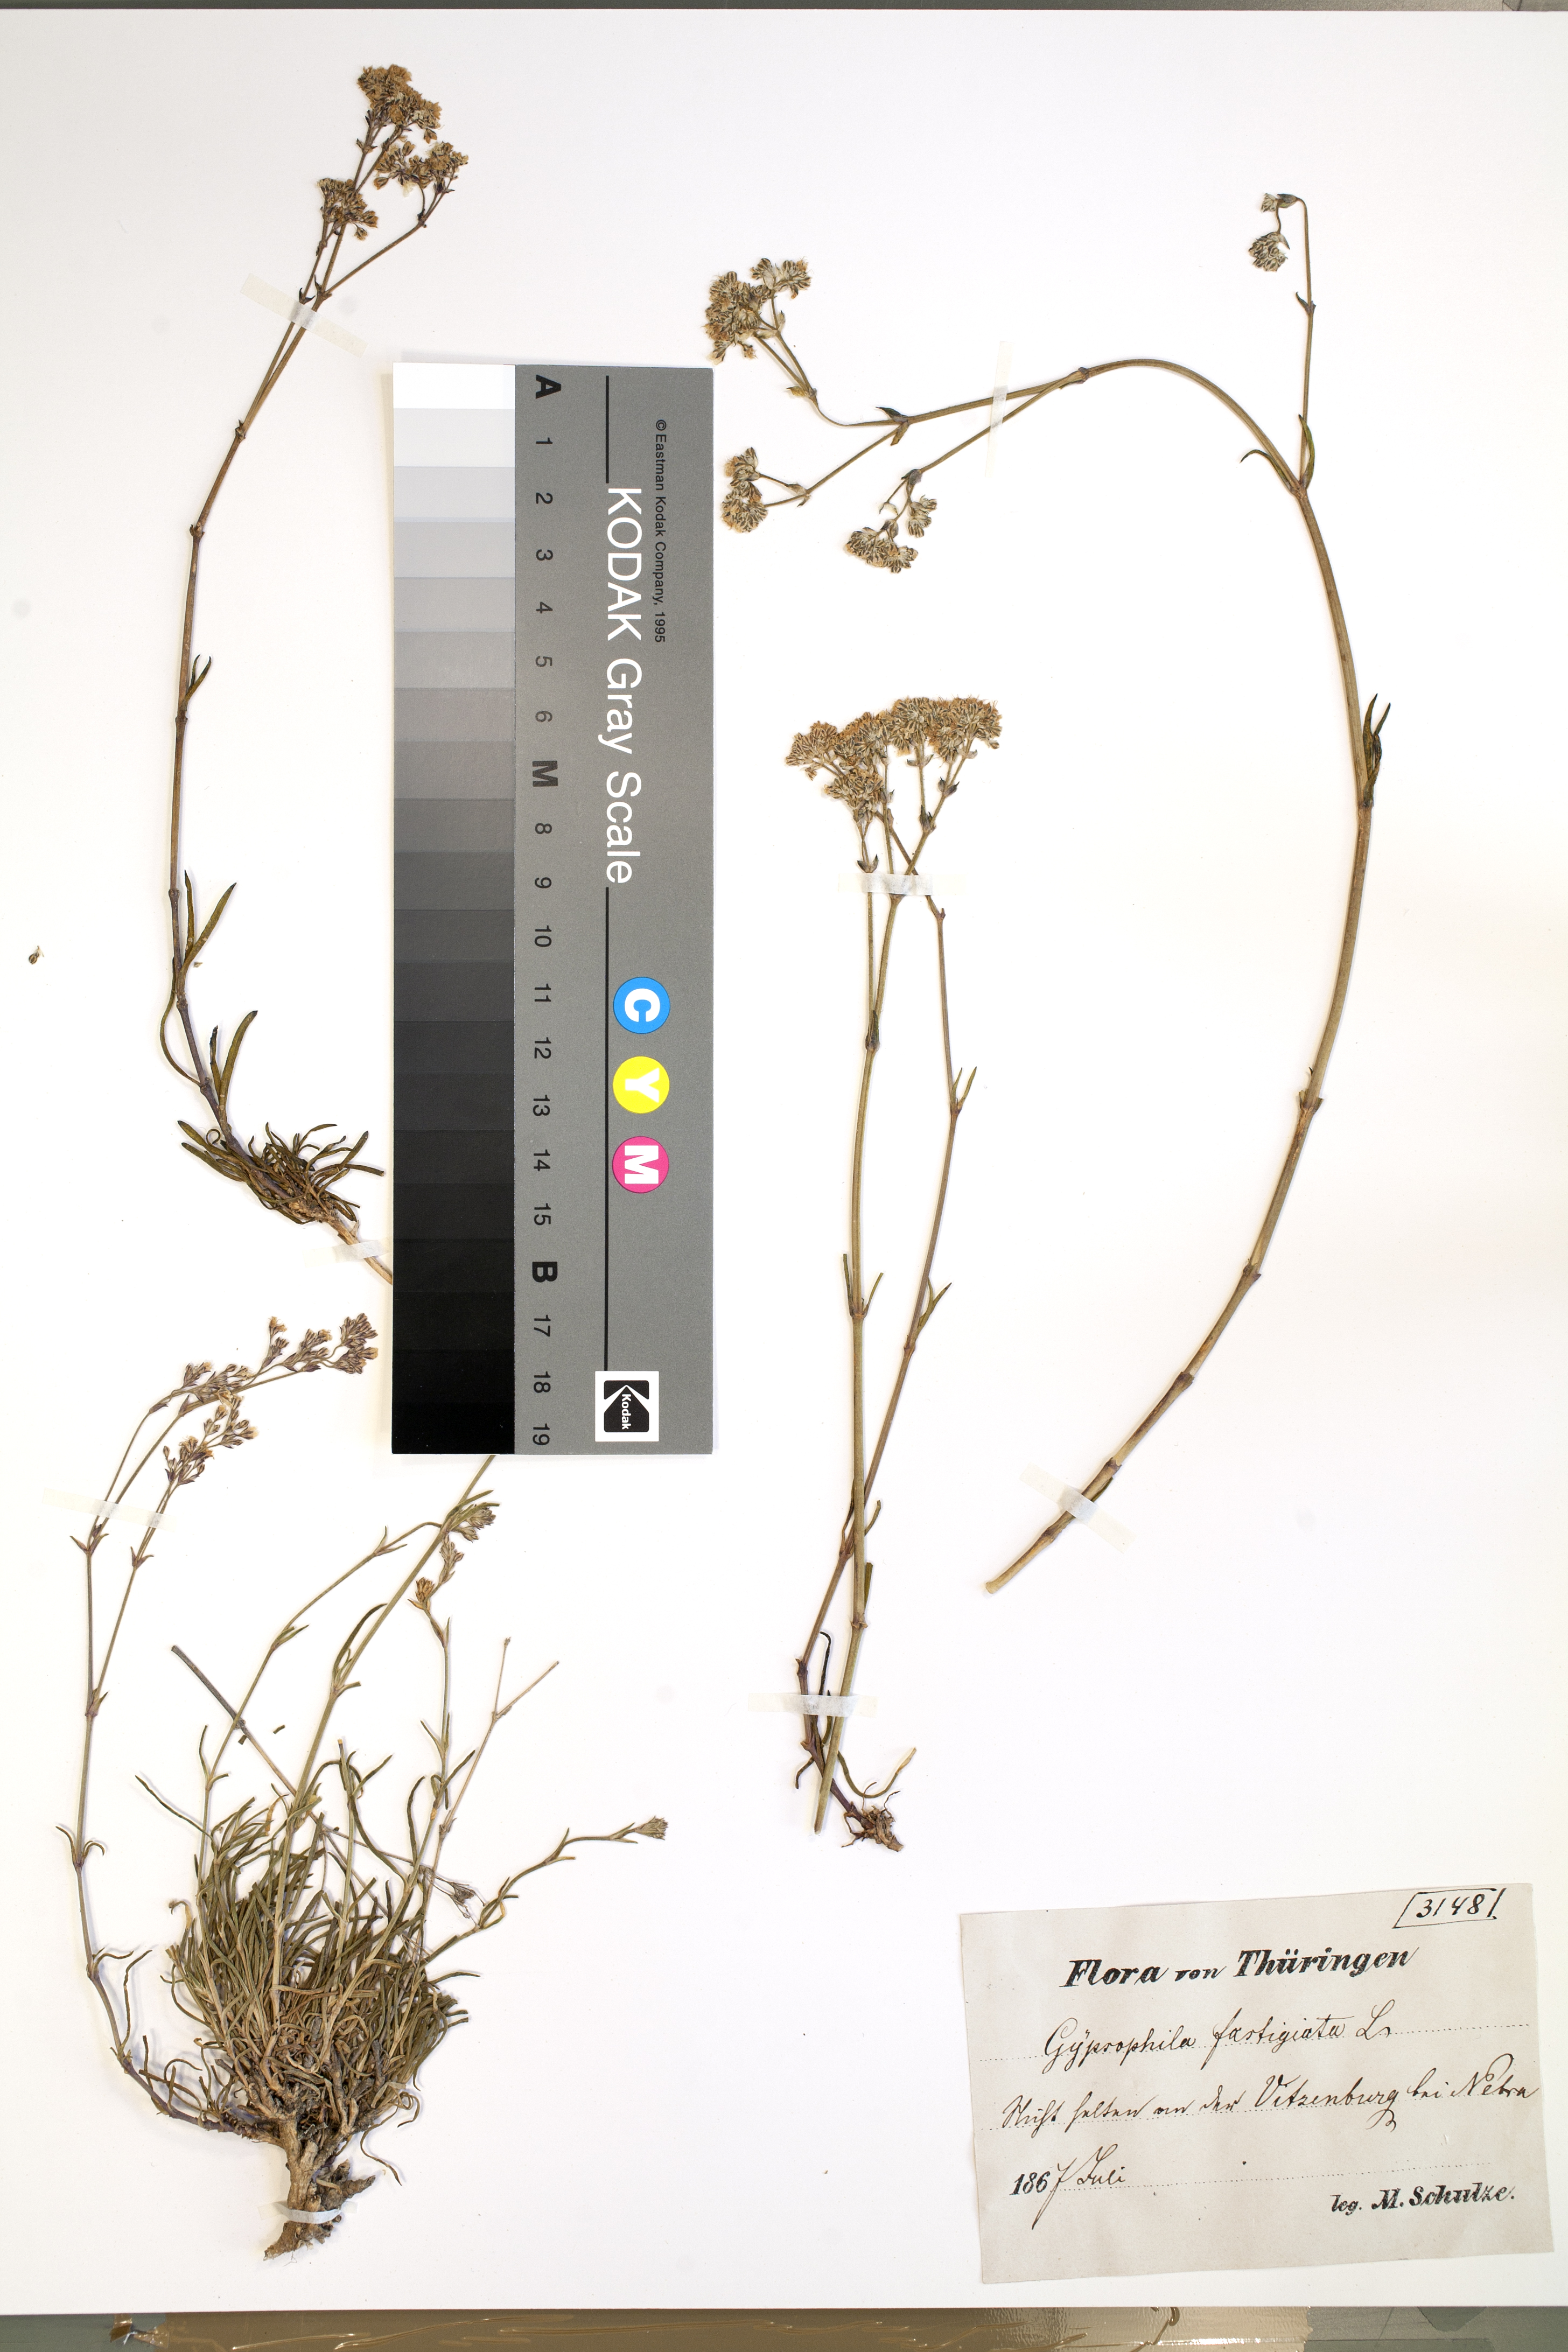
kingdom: Plantae
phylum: Tracheophyta
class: Magnoliopsida
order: Caryophyllales
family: Caryophyllaceae
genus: Gypsophila
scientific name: Gypsophila fastigiata
